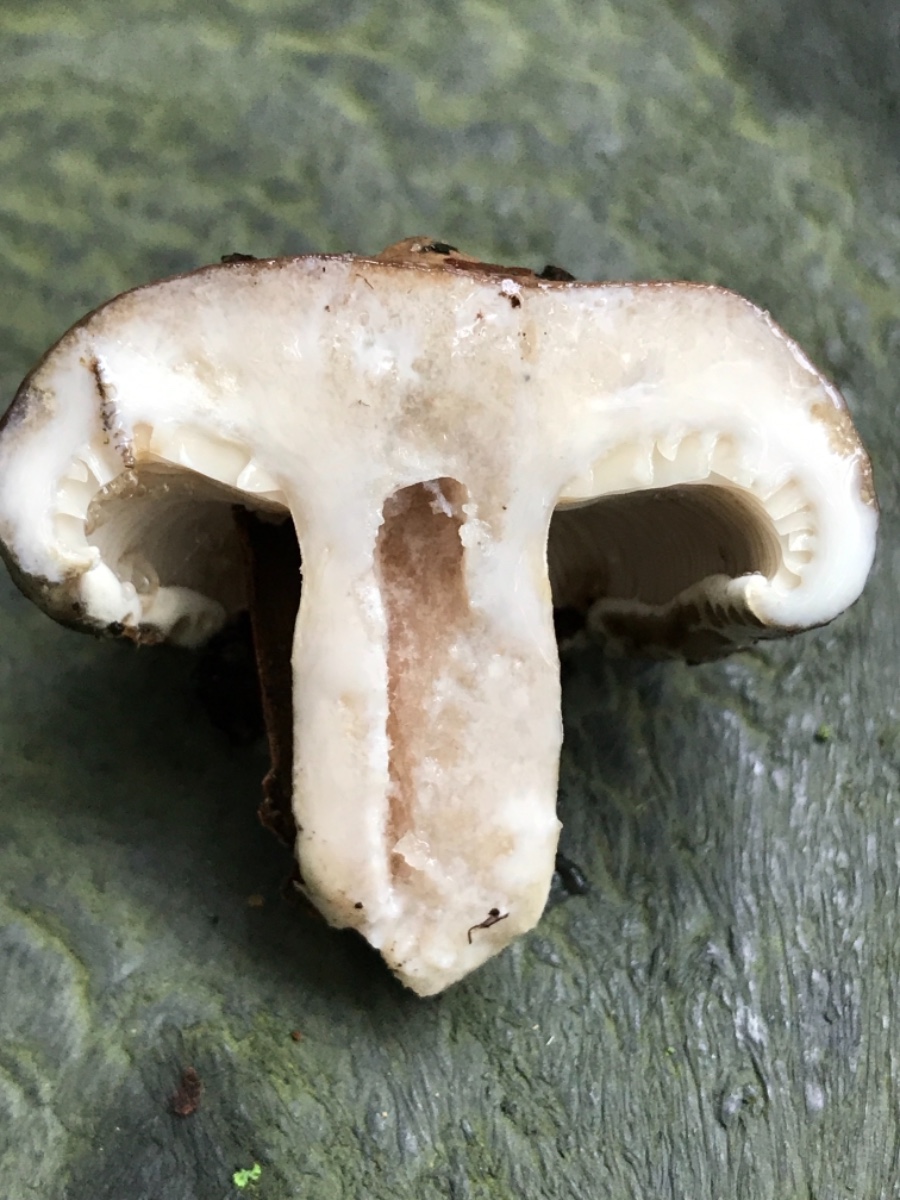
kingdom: Fungi
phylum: Basidiomycota
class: Agaricomycetes
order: Russulales
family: Russulaceae
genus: Lactarius
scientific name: Lactarius blennius
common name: dråbeplettet mælkehat
